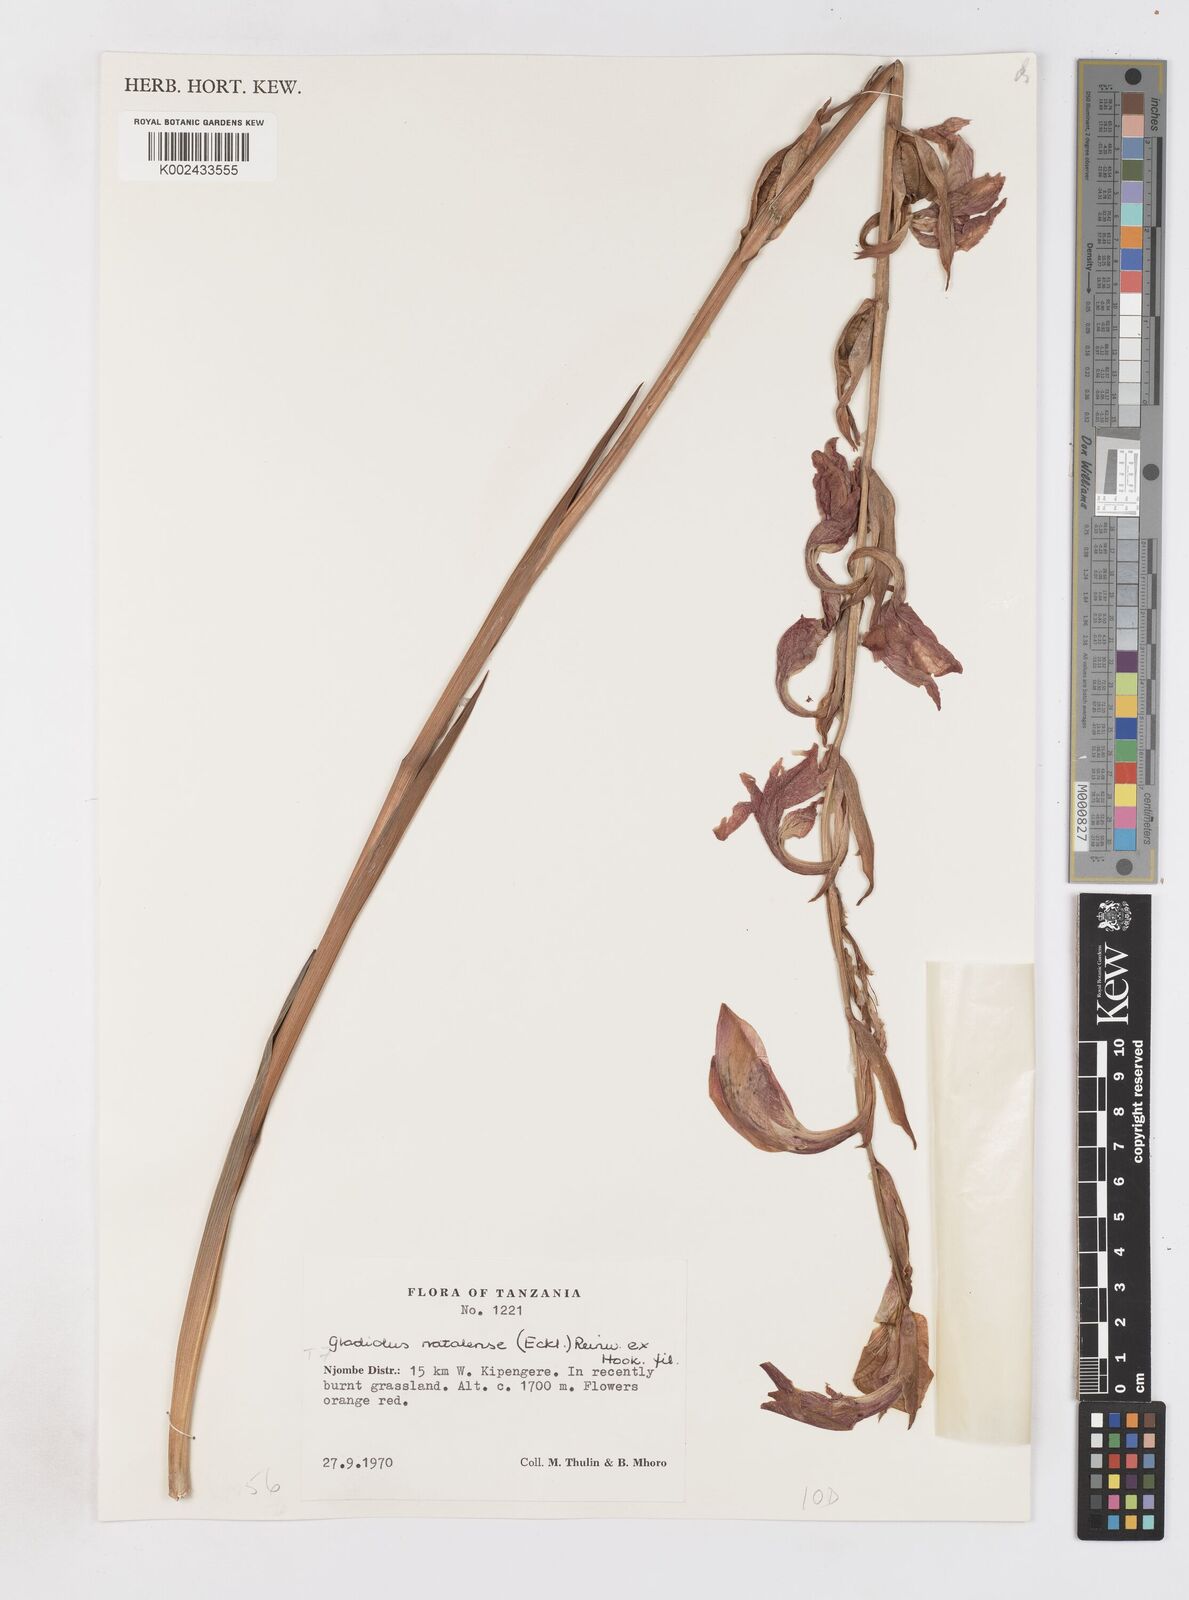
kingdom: Plantae
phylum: Tracheophyta
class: Liliopsida
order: Asparagales
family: Iridaceae
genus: Gladiolus
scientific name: Gladiolus dalenii
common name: Cornflag
